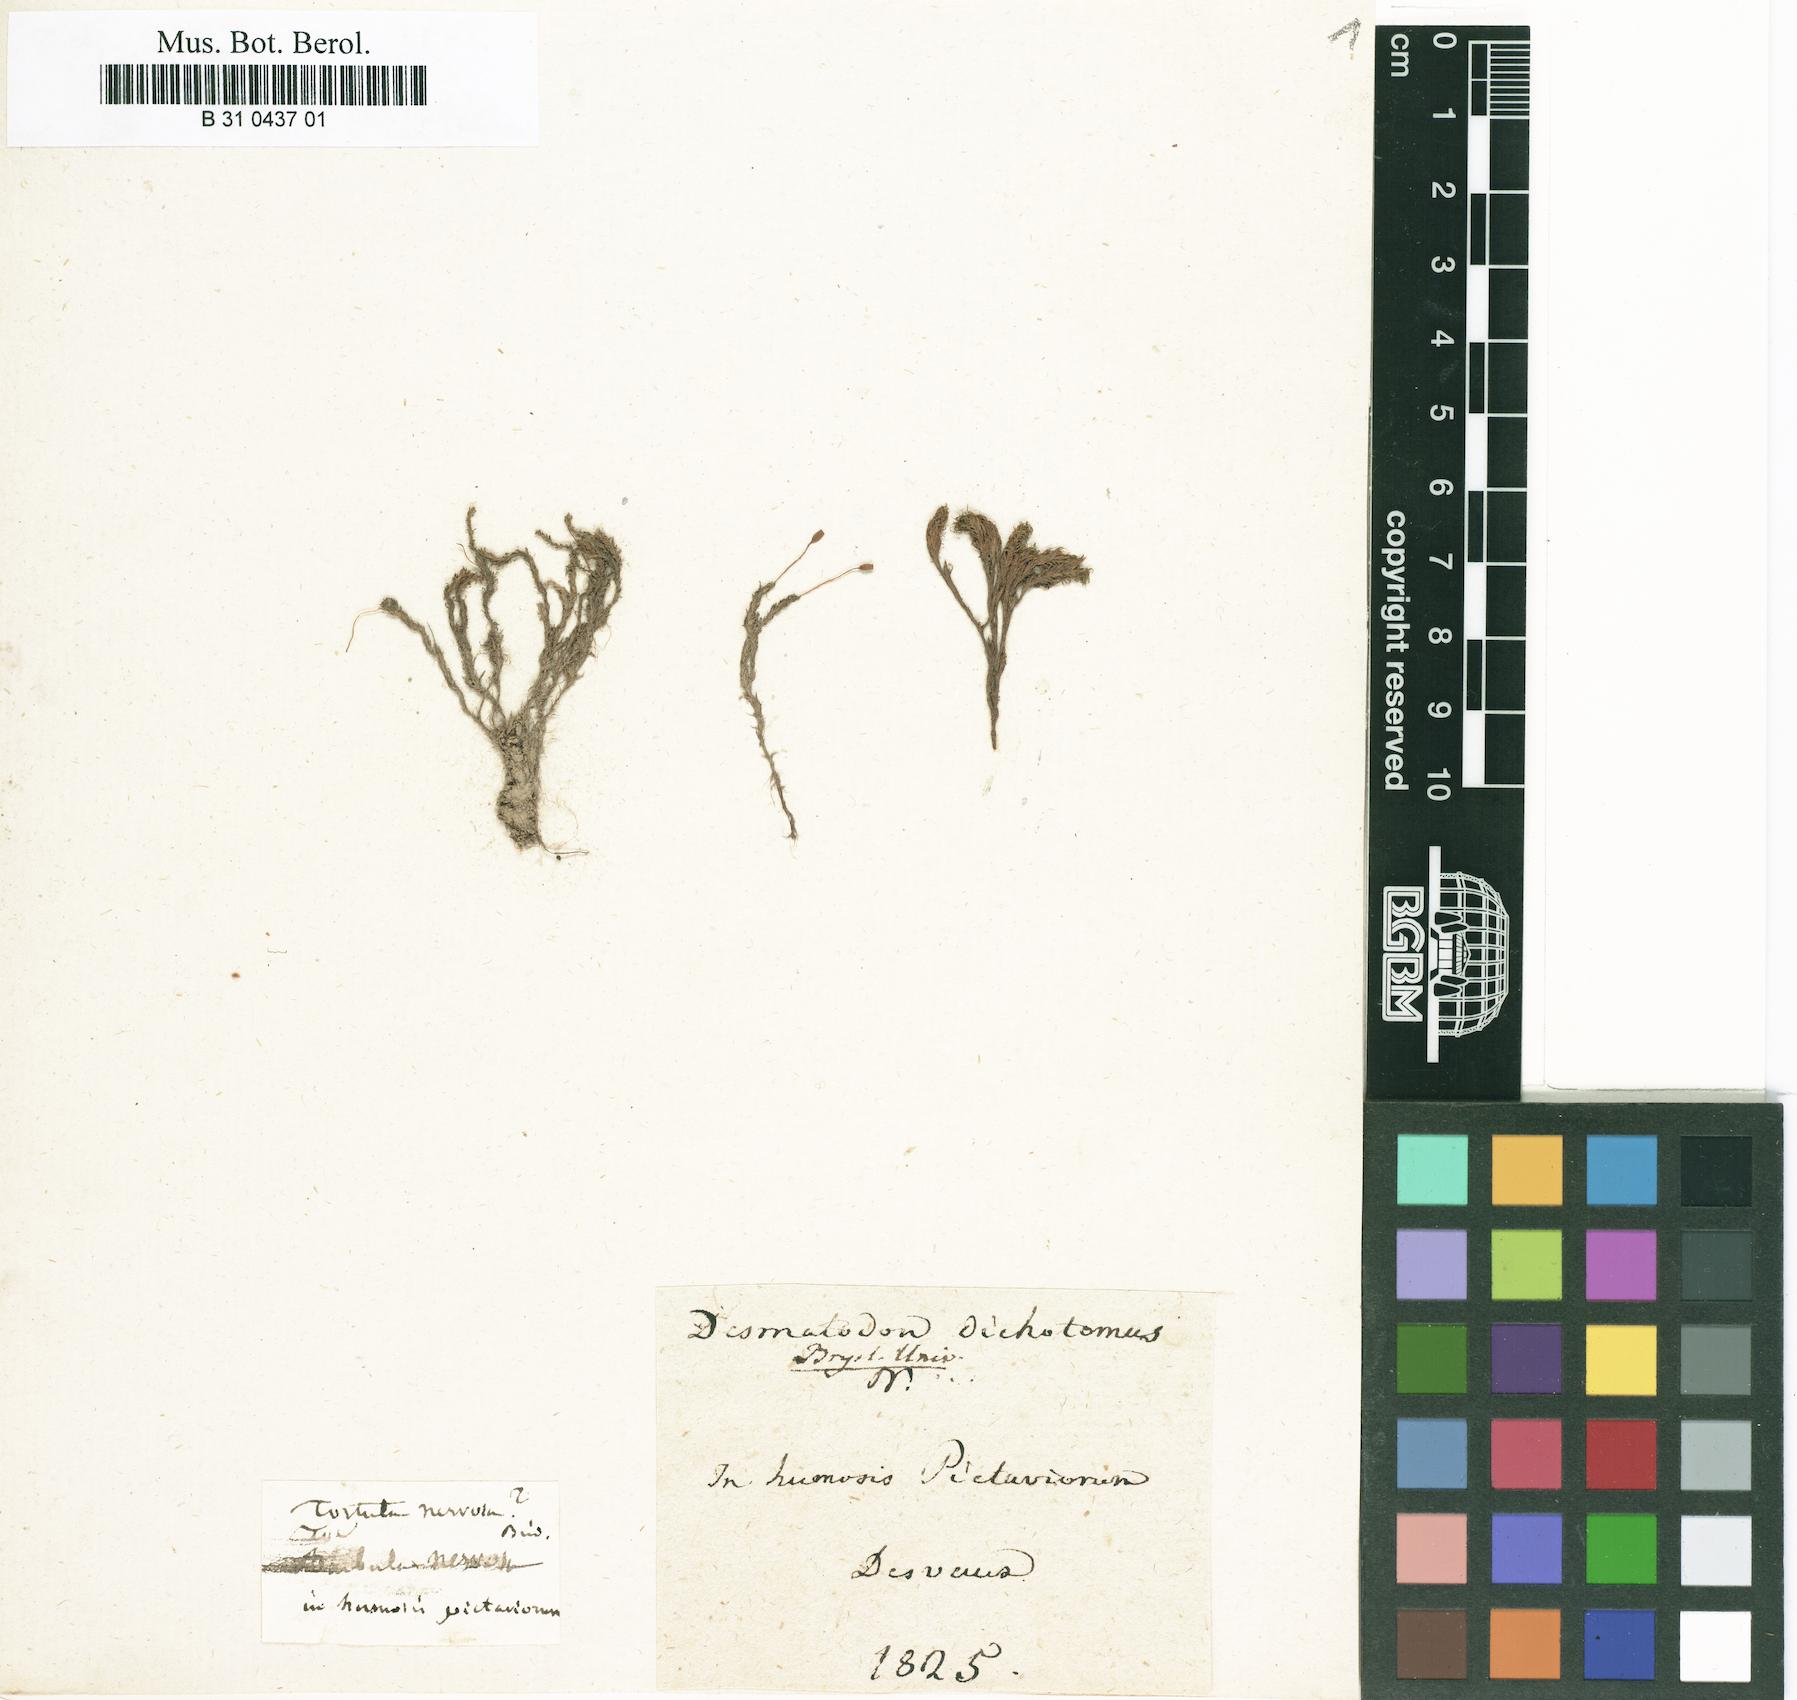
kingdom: Plantae
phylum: Bryophyta
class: Bryopsida
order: Pottiales
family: Pottiaceae
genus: Dialytrichia
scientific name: Dialytrichia mucronata
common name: Pointed lattice-moss
